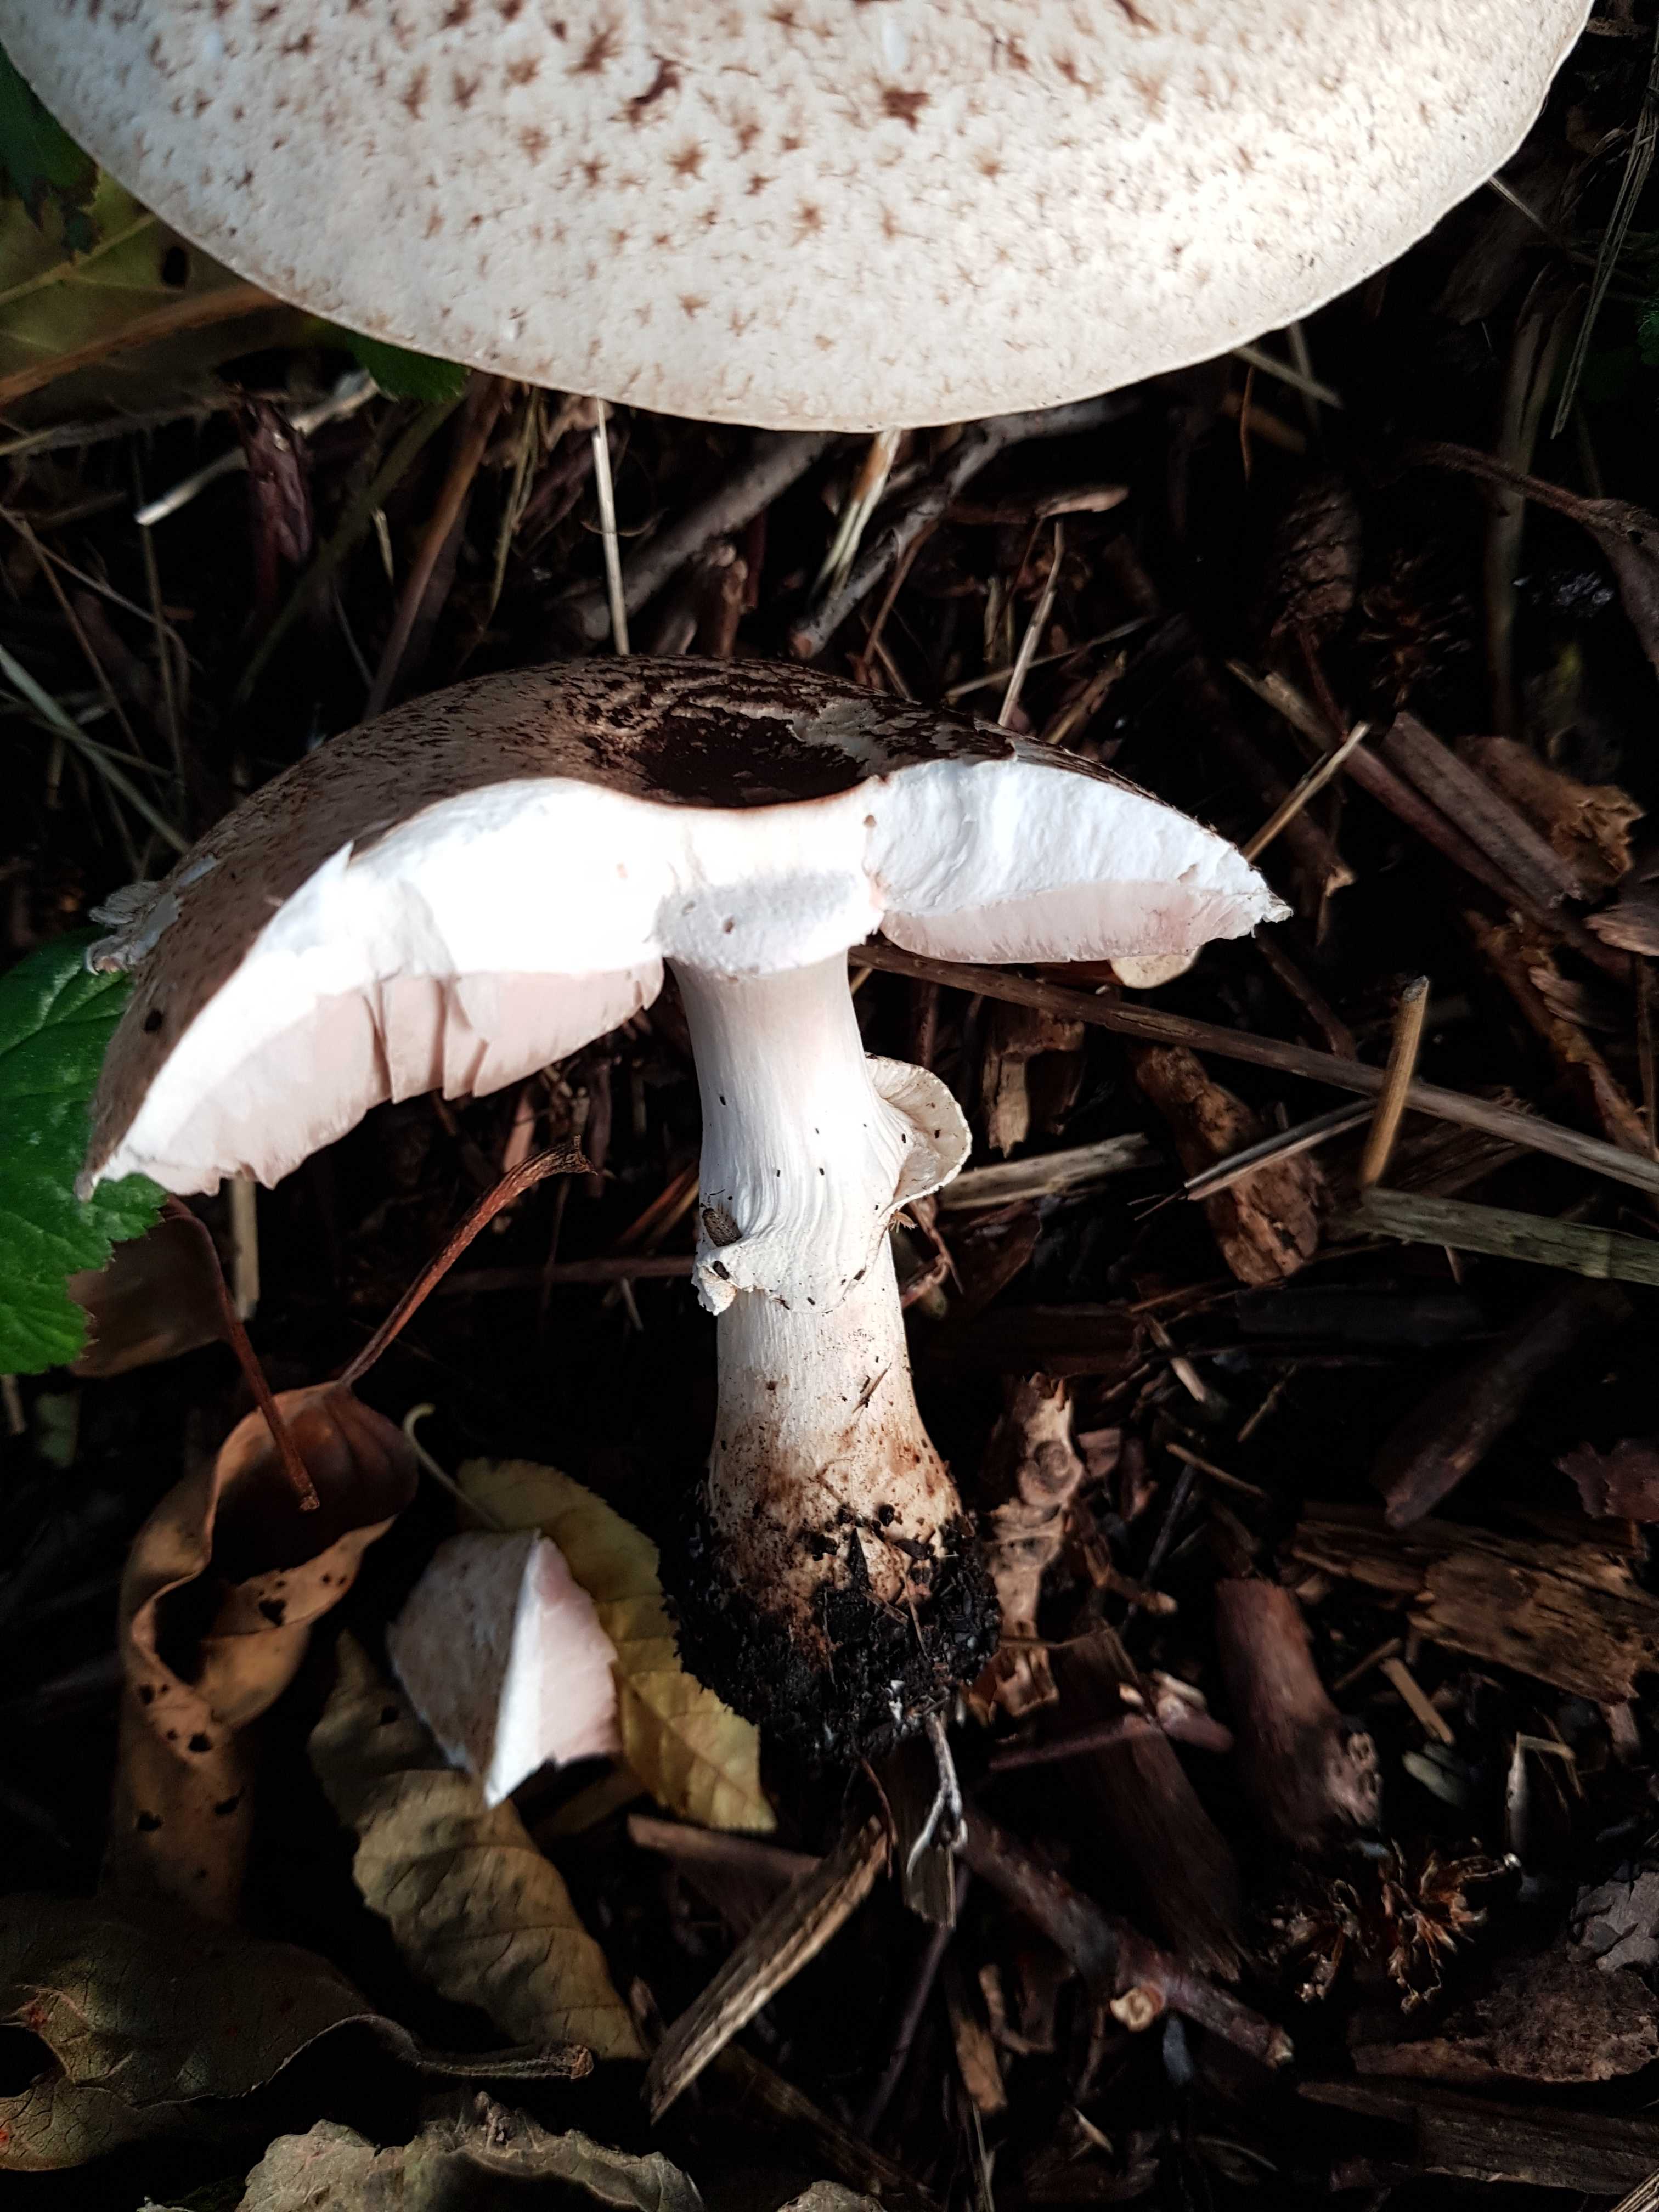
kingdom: Fungi
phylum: Basidiomycota
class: Agaricomycetes
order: Agaricales
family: Agaricaceae
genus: Agaricus
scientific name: Agaricus impudicus
